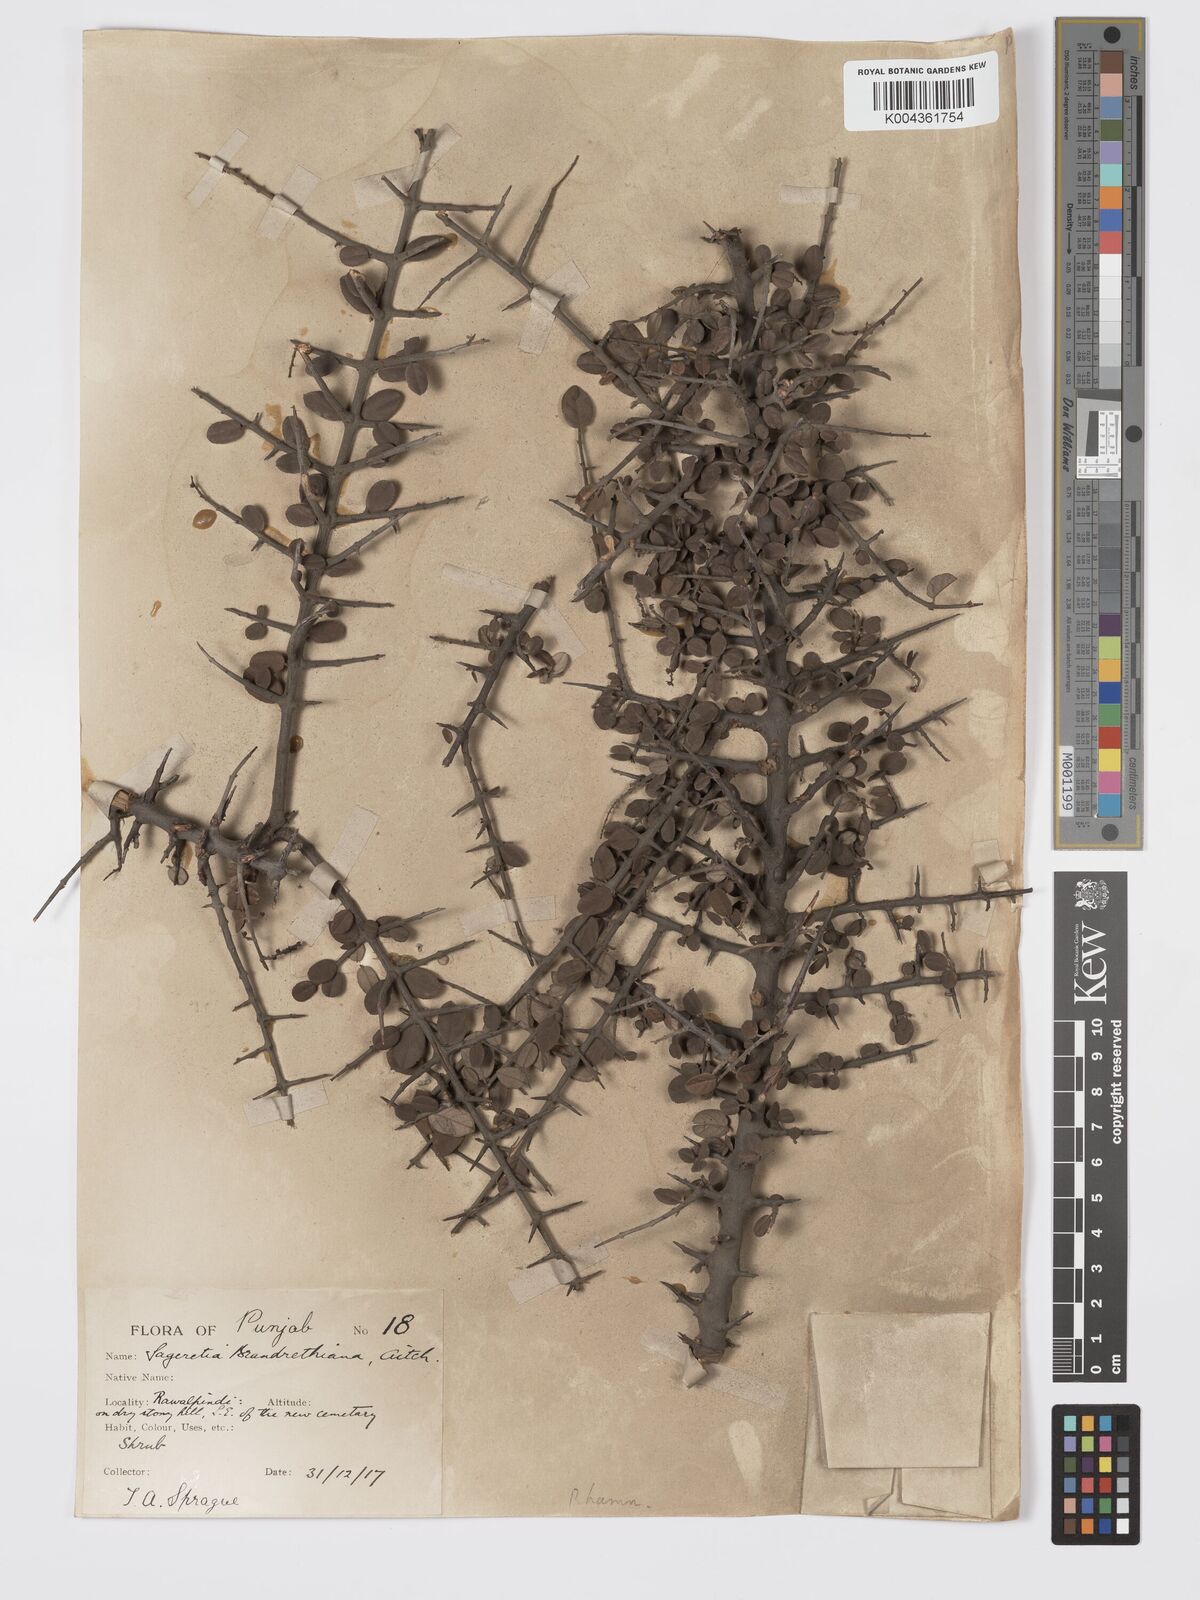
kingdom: Plantae
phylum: Tracheophyta
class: Magnoliopsida
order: Rosales
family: Rhamnaceae
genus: Sageretia
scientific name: Sageretia brandrethiana
